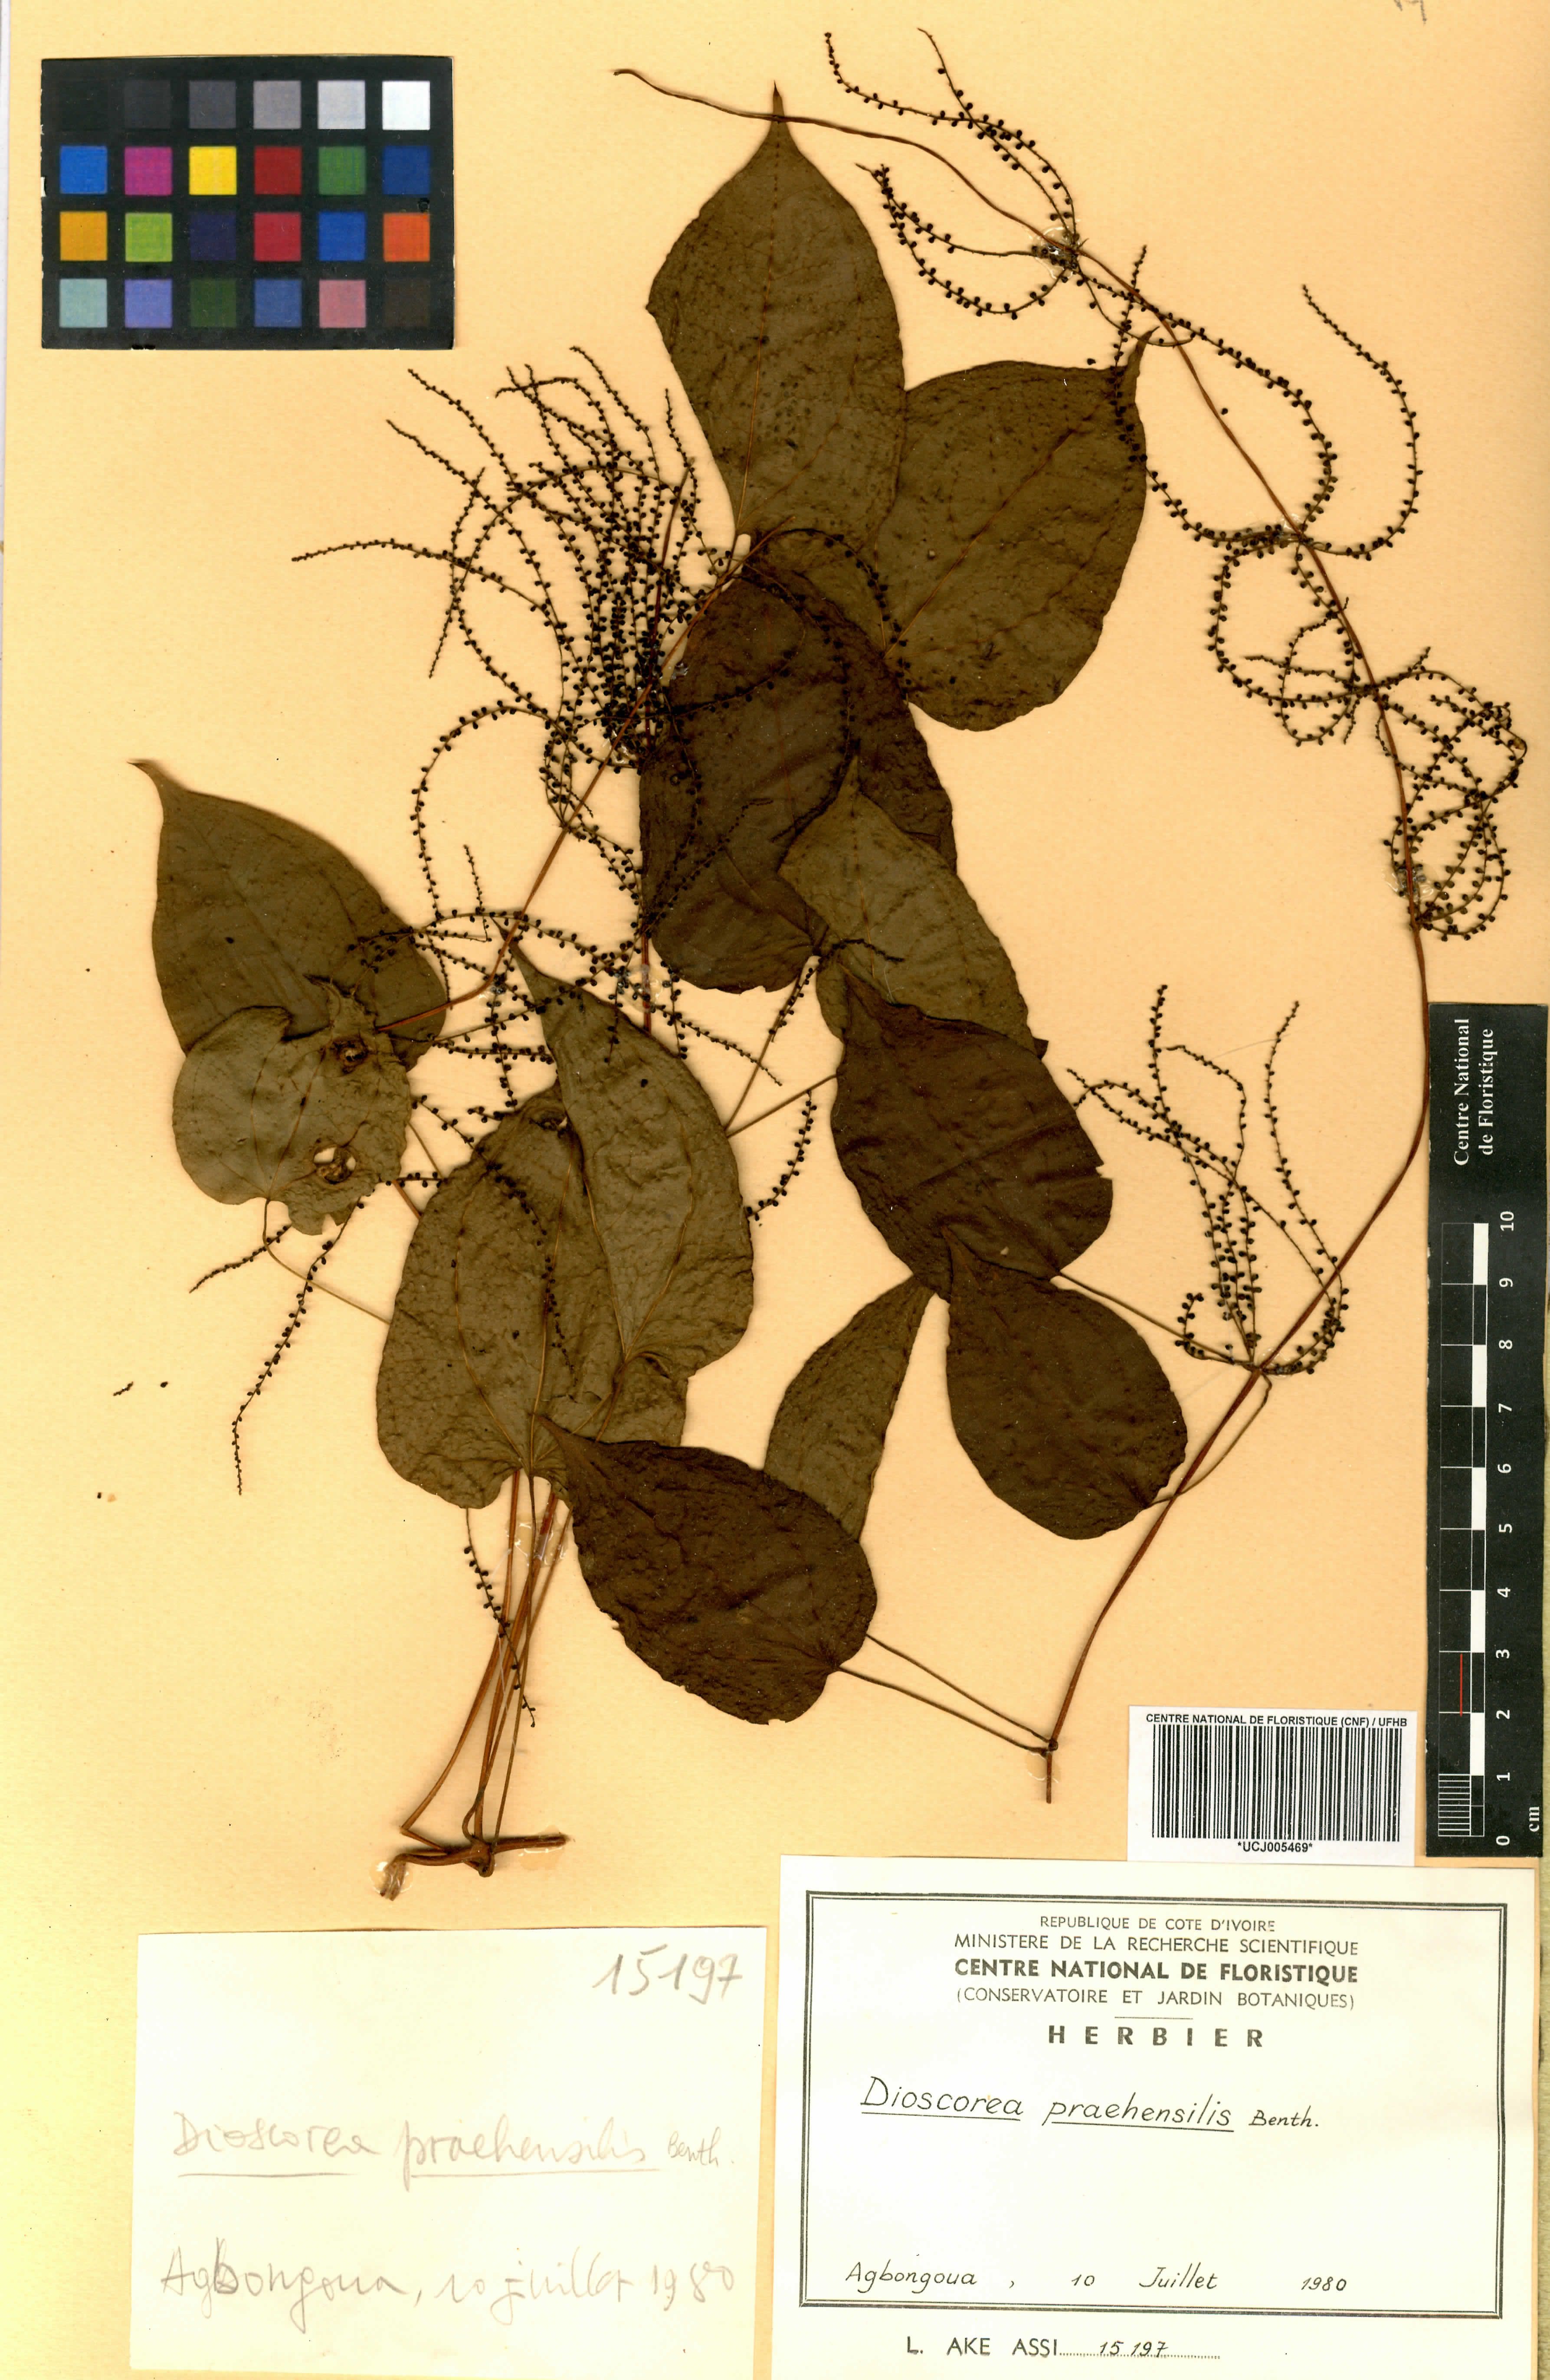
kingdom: Plantae
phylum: Tracheophyta
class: Liliopsida
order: Dioscoreales
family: Dioscoreaceae
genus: Dioscorea
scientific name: Dioscorea praehensilis
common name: Bush yam
